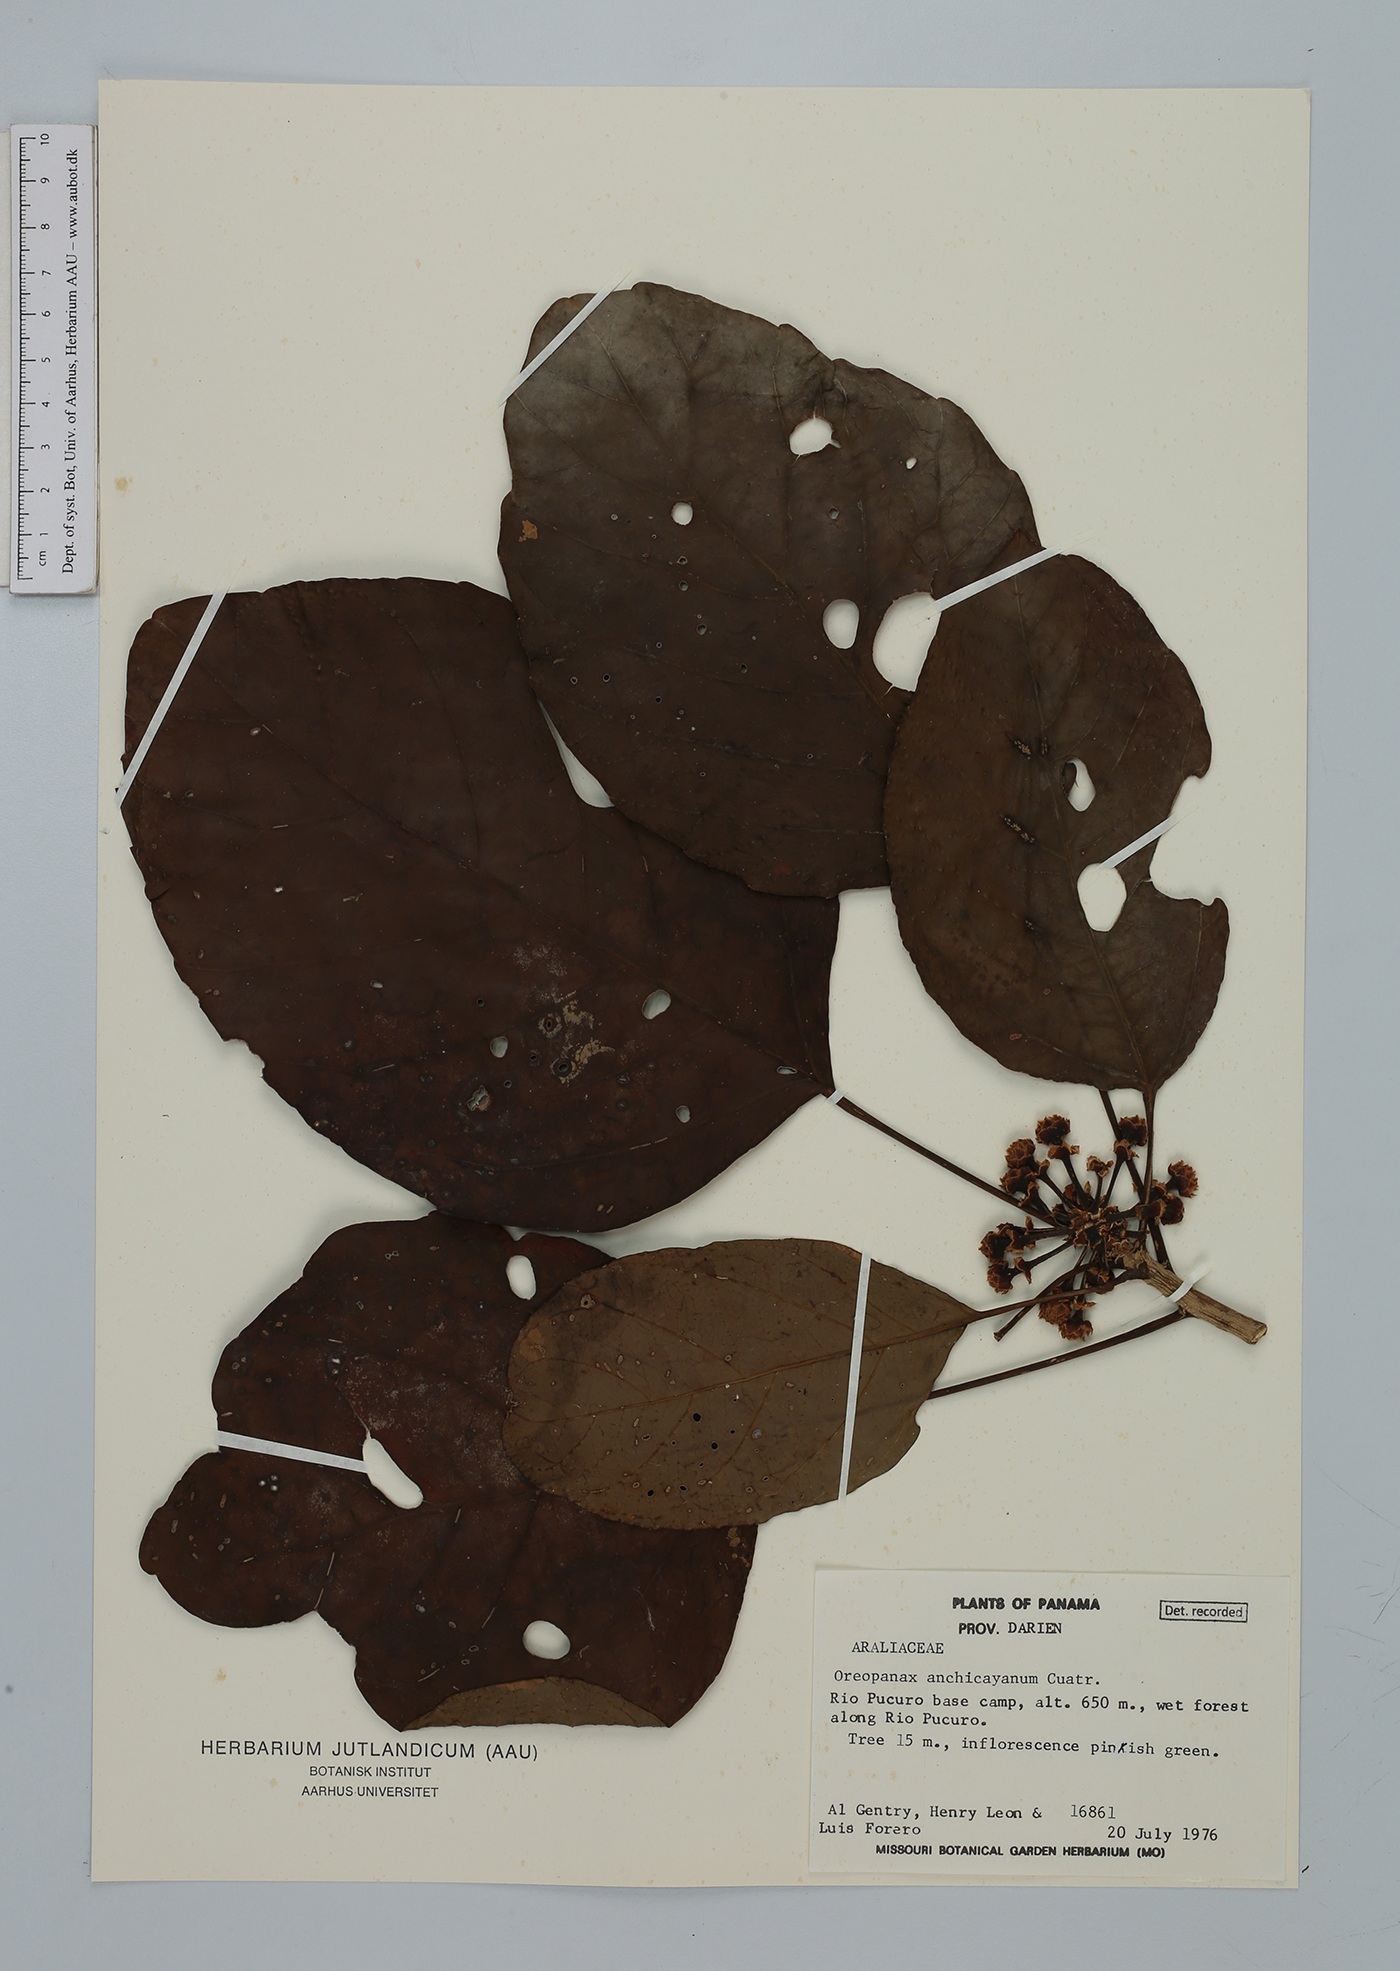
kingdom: Plantae
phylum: Tracheophyta
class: Magnoliopsida
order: Apiales
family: Araliaceae
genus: Oreopanax
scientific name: Oreopanax anchicayanus
